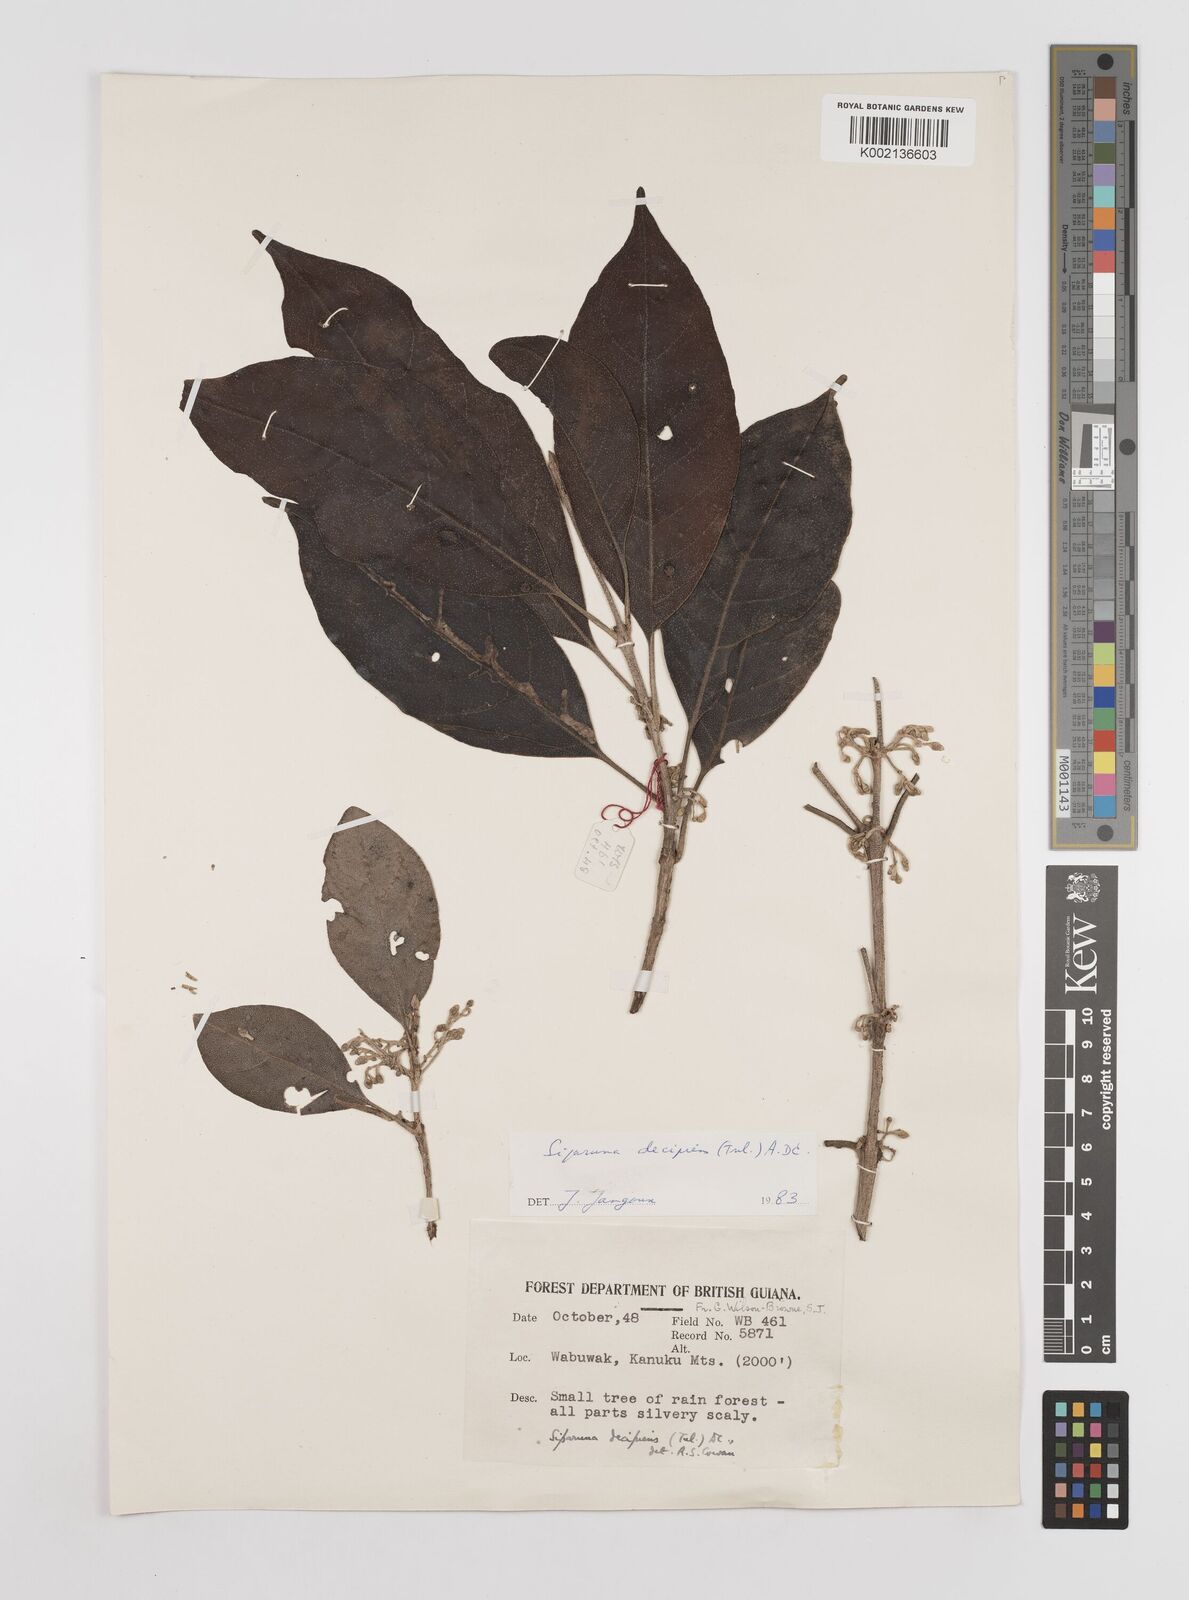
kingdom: Plantae
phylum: Tracheophyta
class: Magnoliopsida
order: Laurales
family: Siparunaceae
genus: Siparuna
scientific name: Siparuna decipiens
